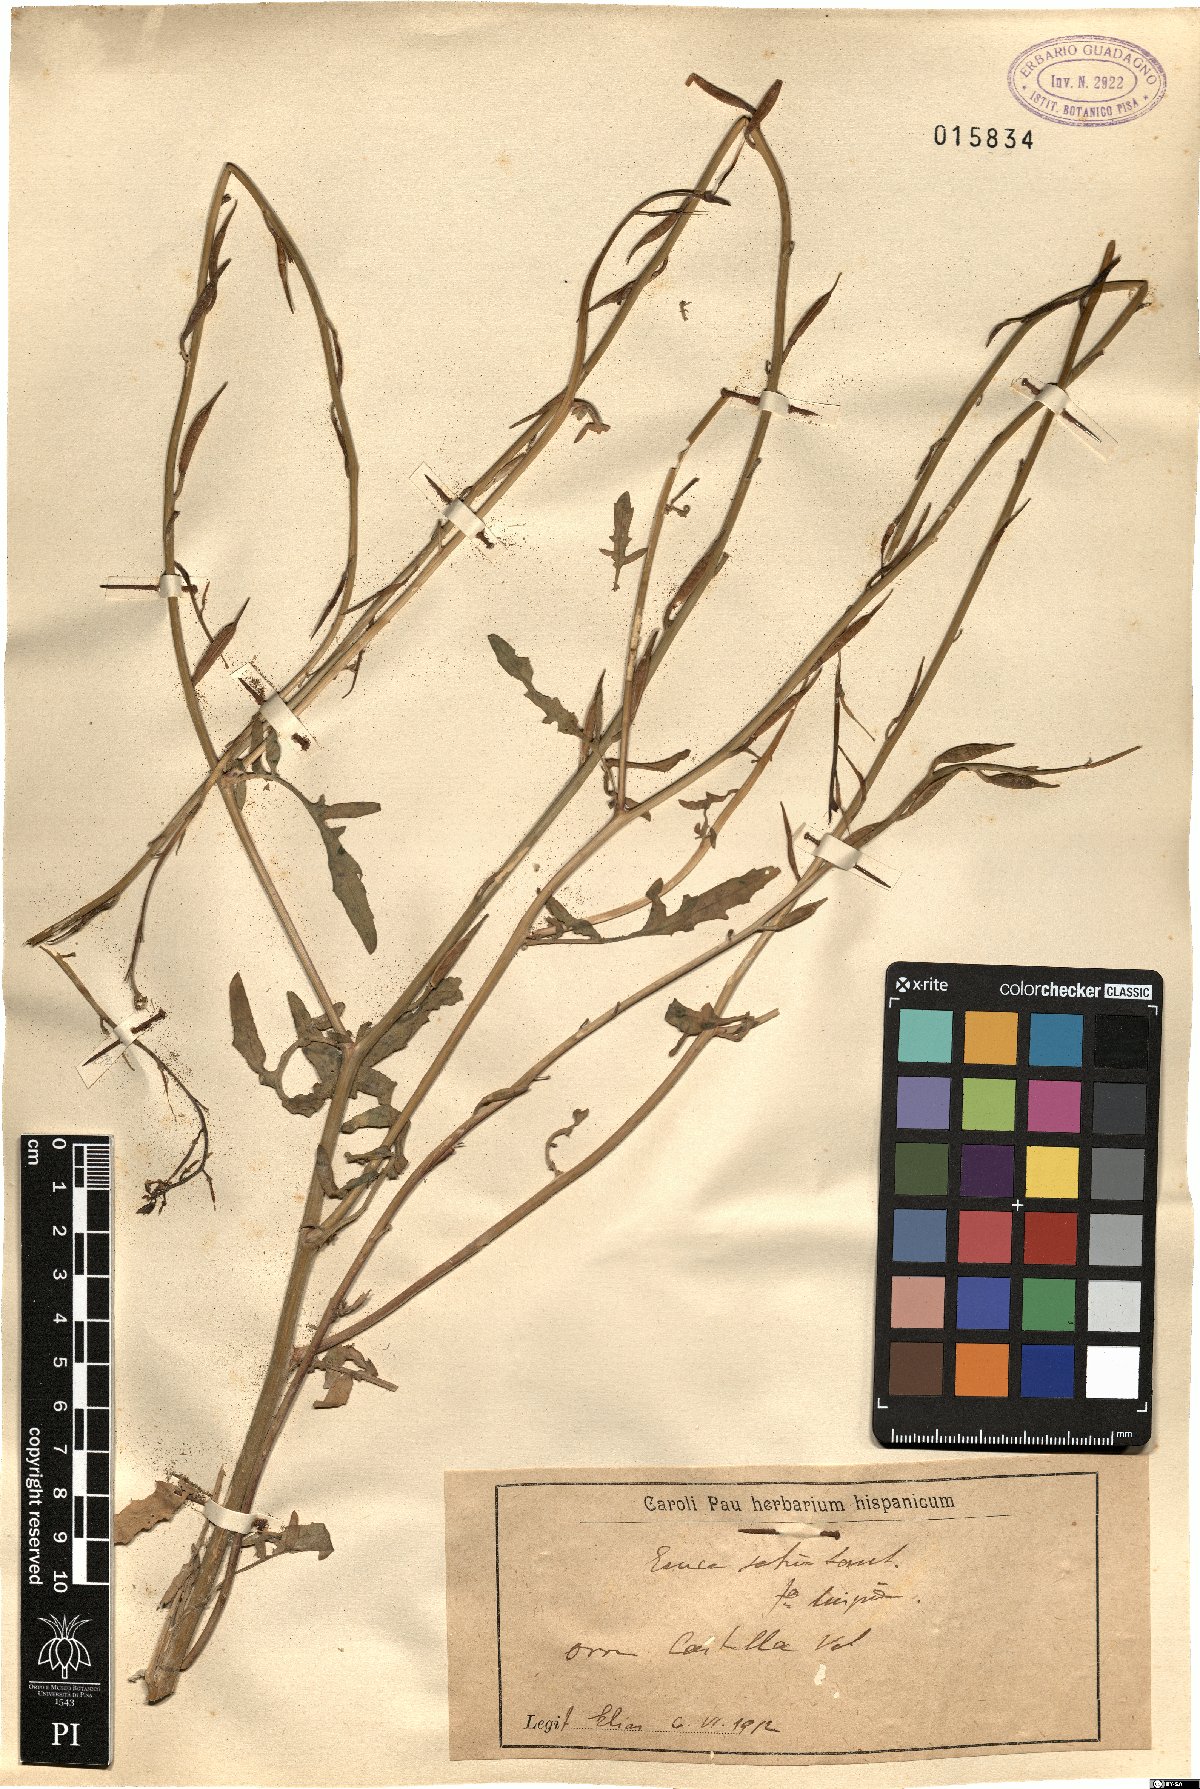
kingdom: Plantae
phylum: Tracheophyta
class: Magnoliopsida
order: Brassicales
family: Brassicaceae
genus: Eruca
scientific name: Eruca vesicaria
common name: Garden rocket
